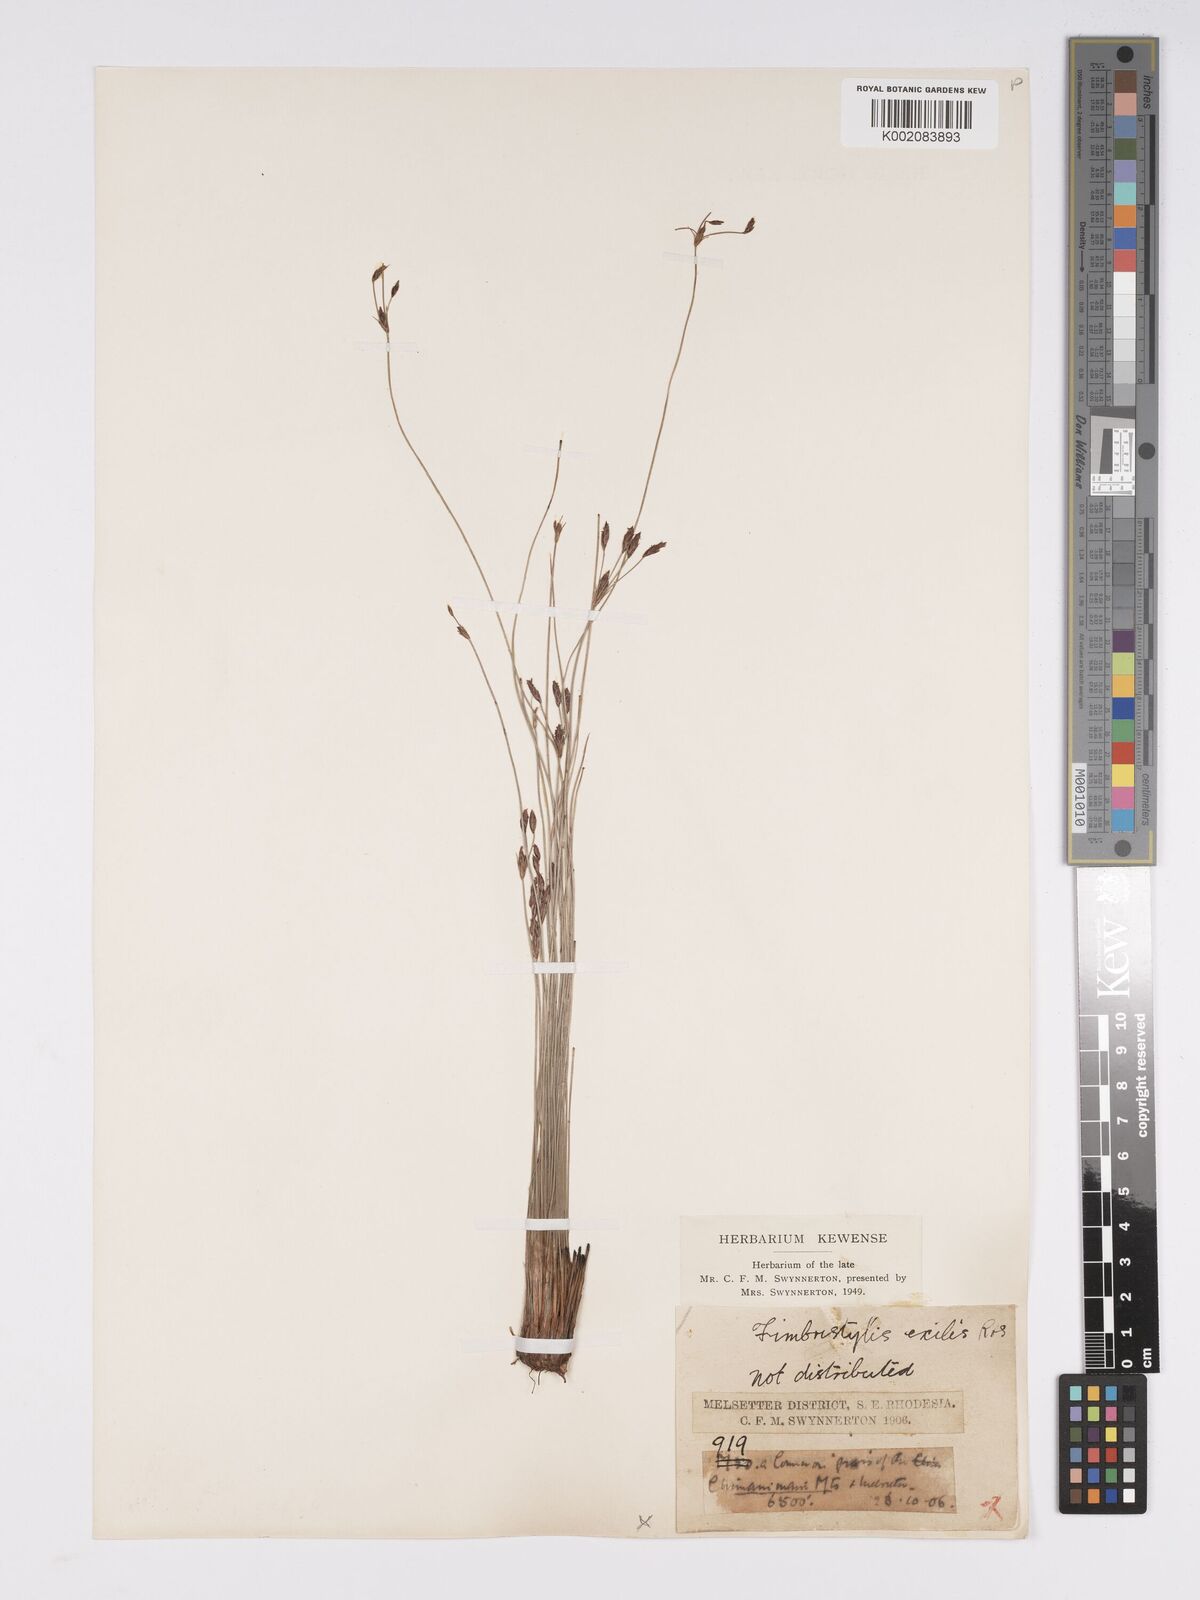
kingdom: Plantae
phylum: Tracheophyta
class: Liliopsida
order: Poales
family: Cyperaceae
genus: Bulbostylis
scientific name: Bulbostylis hispidula
